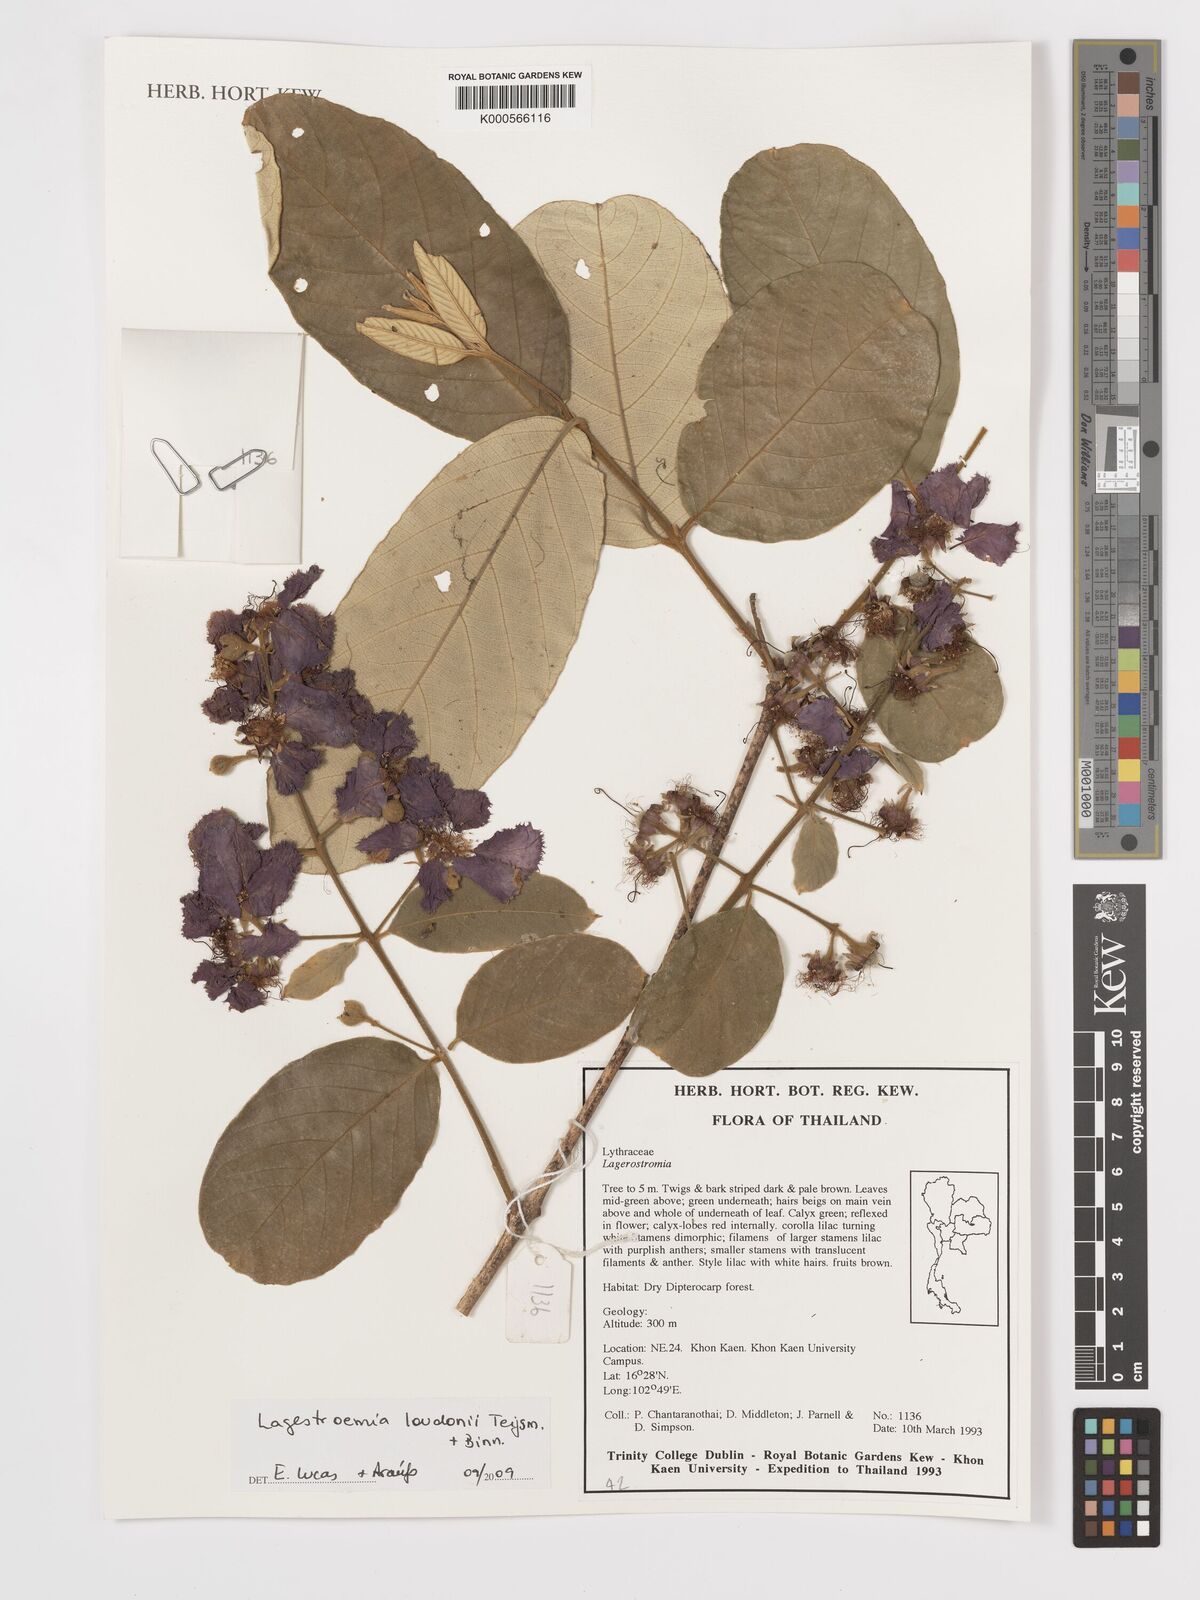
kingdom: Plantae
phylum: Tracheophyta
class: Magnoliopsida
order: Myrtales
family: Lythraceae
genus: Lagerstroemia
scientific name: Lagerstroemia loudonii
